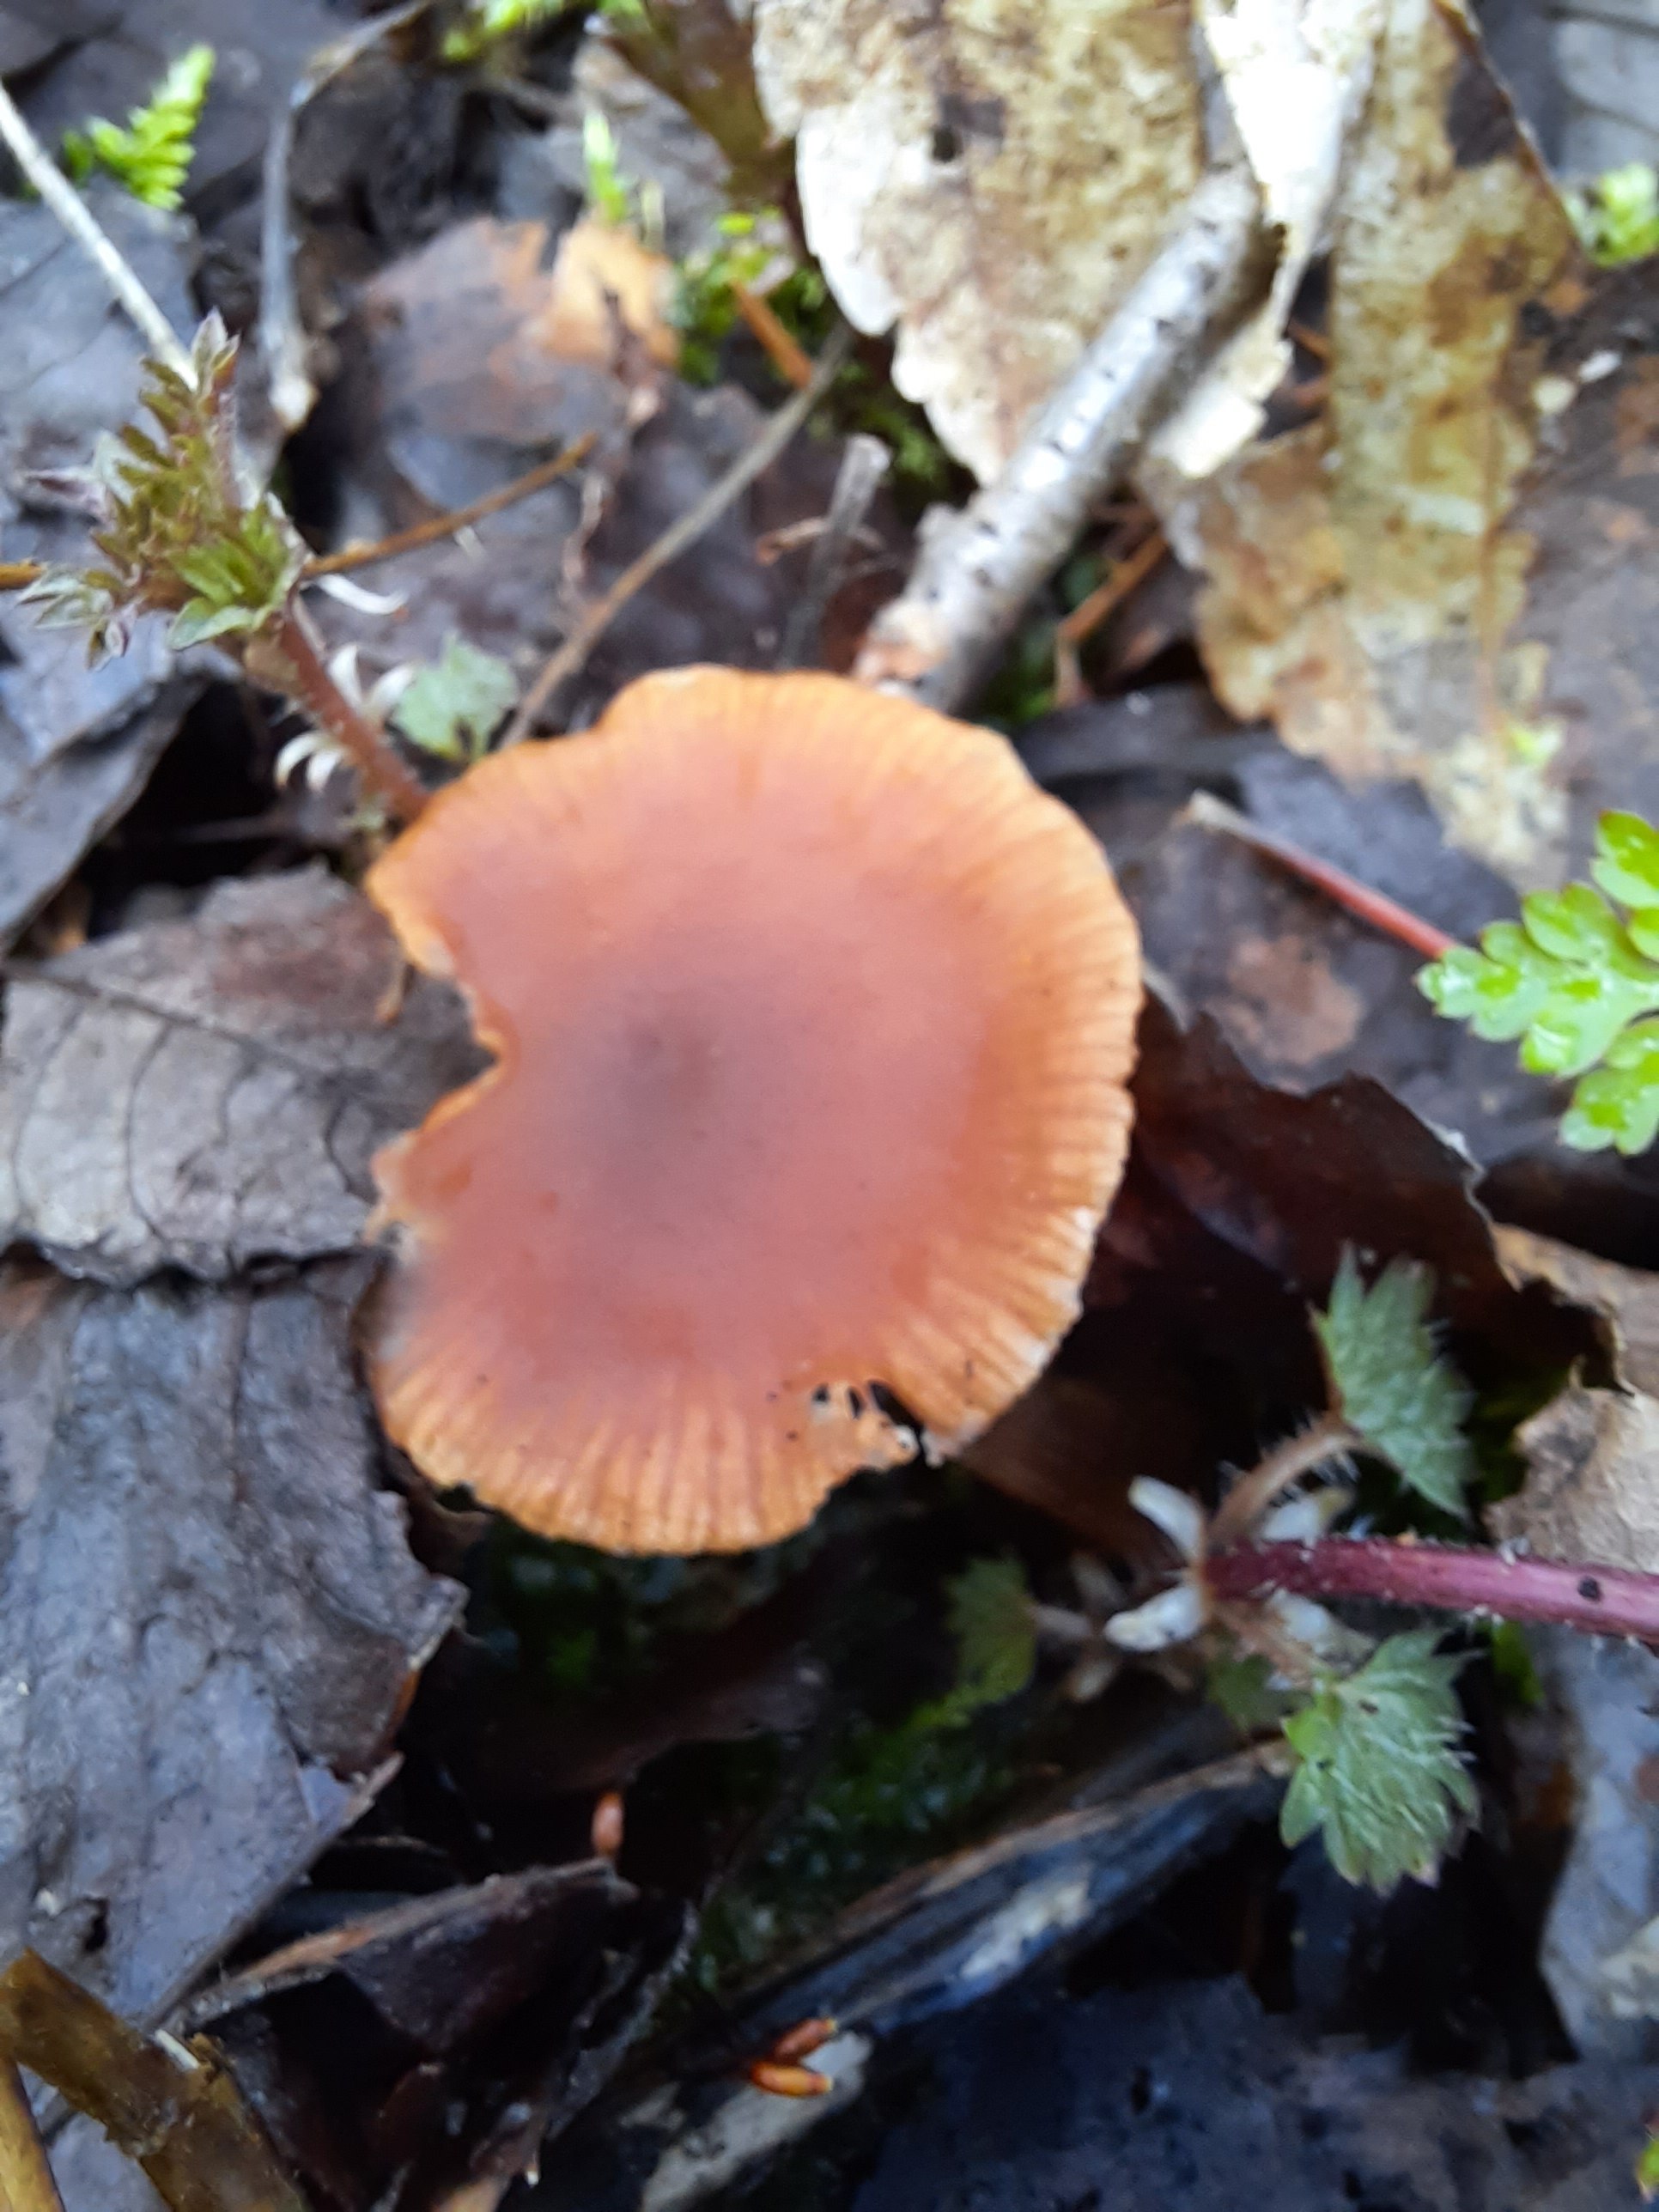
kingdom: Fungi
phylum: Basidiomycota
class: Agaricomycetes
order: Agaricales
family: Tubariaceae
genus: Tubaria
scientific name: Tubaria furfuracea
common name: kliddet fnughat
